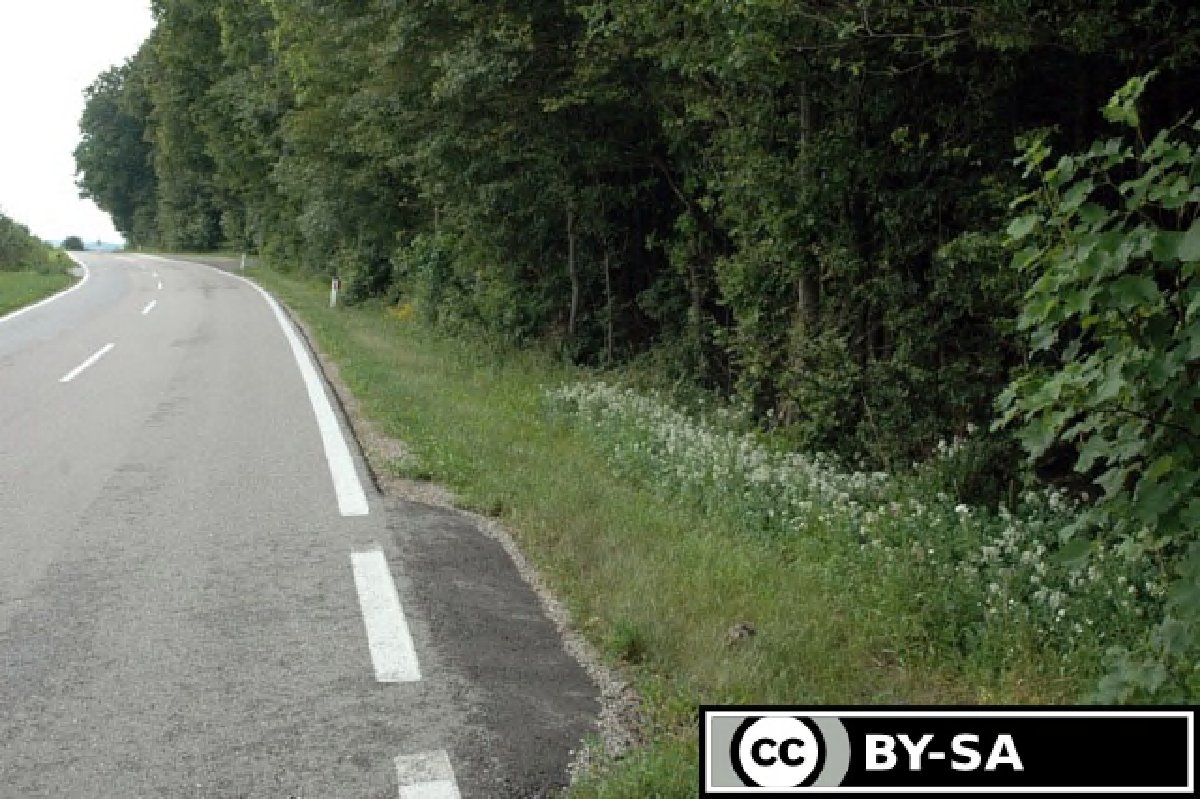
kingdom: Plantae
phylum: Tracheophyta
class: Magnoliopsida
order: Gentianales
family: Rubiaceae
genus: Galium
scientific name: Galium rubioides
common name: European bedstraw
